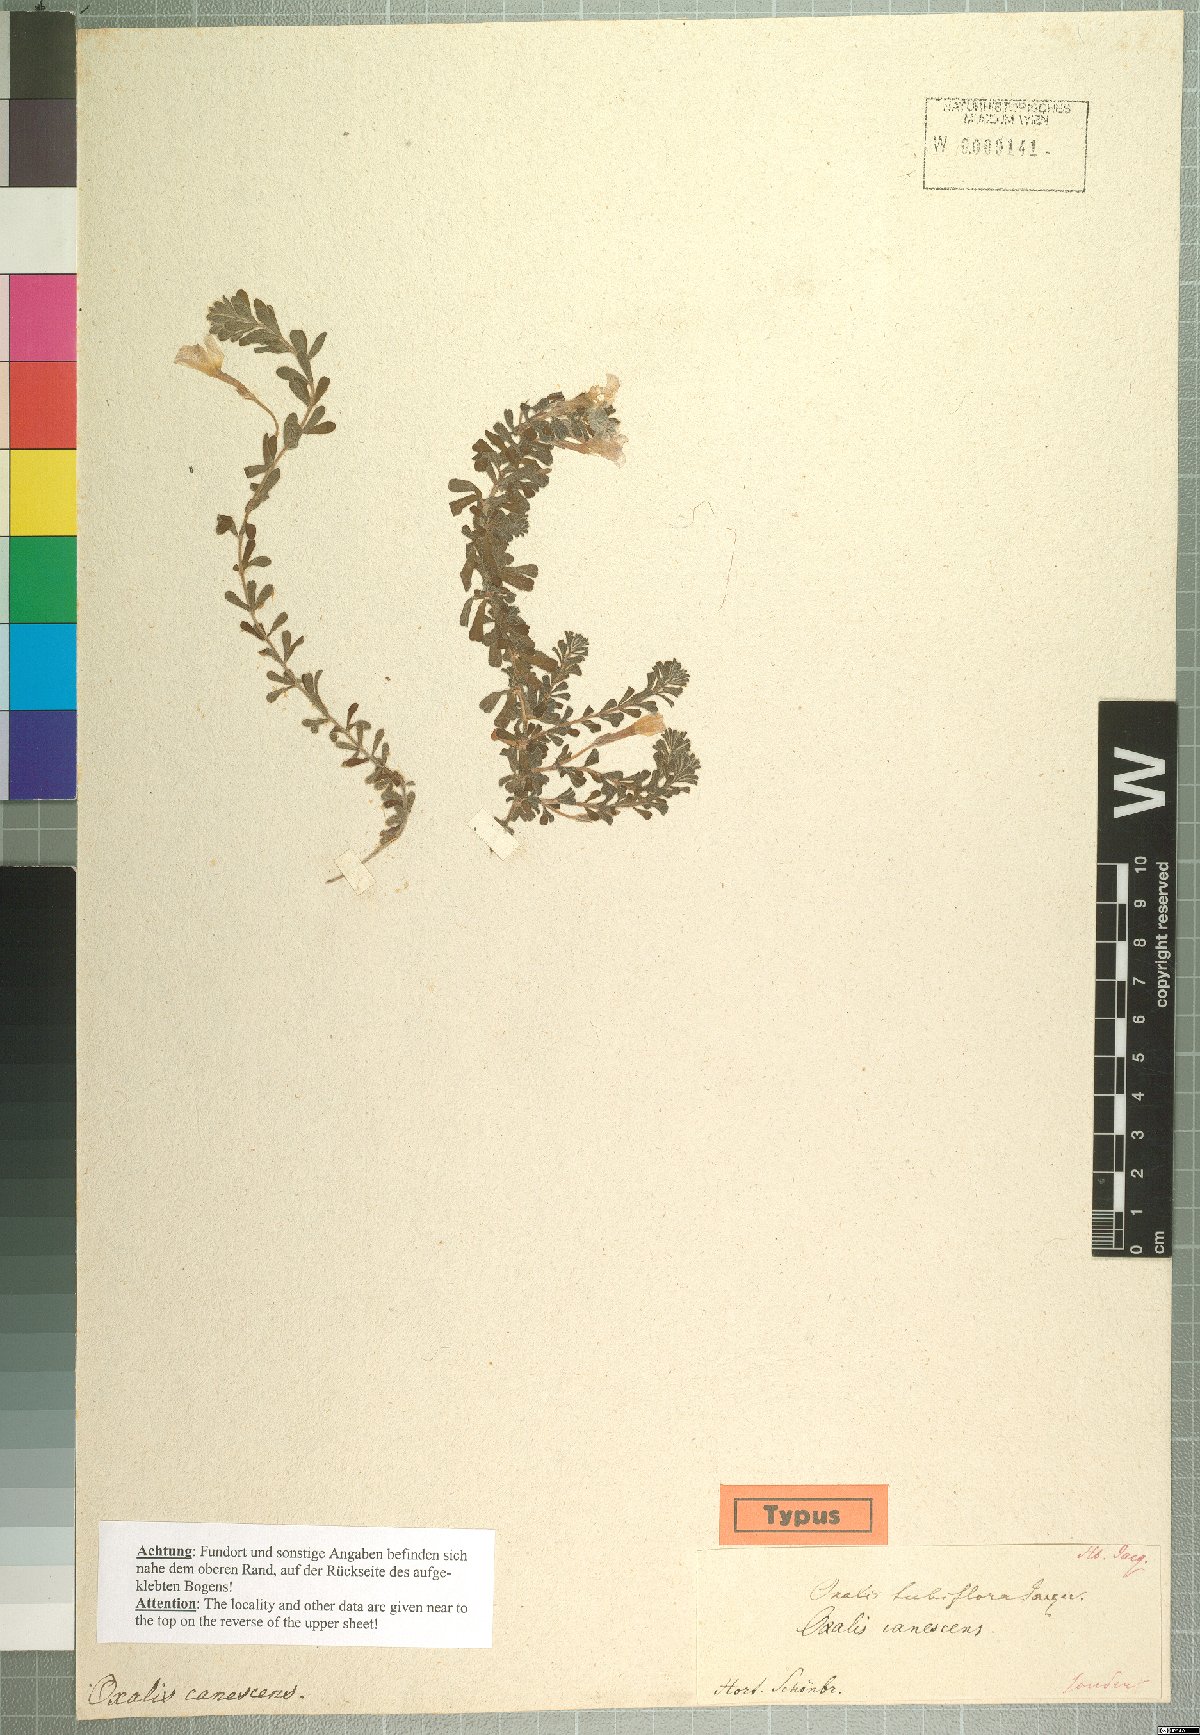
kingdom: Plantae
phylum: Tracheophyta
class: Magnoliopsida
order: Oxalidales
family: Oxalidaceae
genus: Oxalis
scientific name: Oxalis hirta
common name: Tropical woodsorrel
